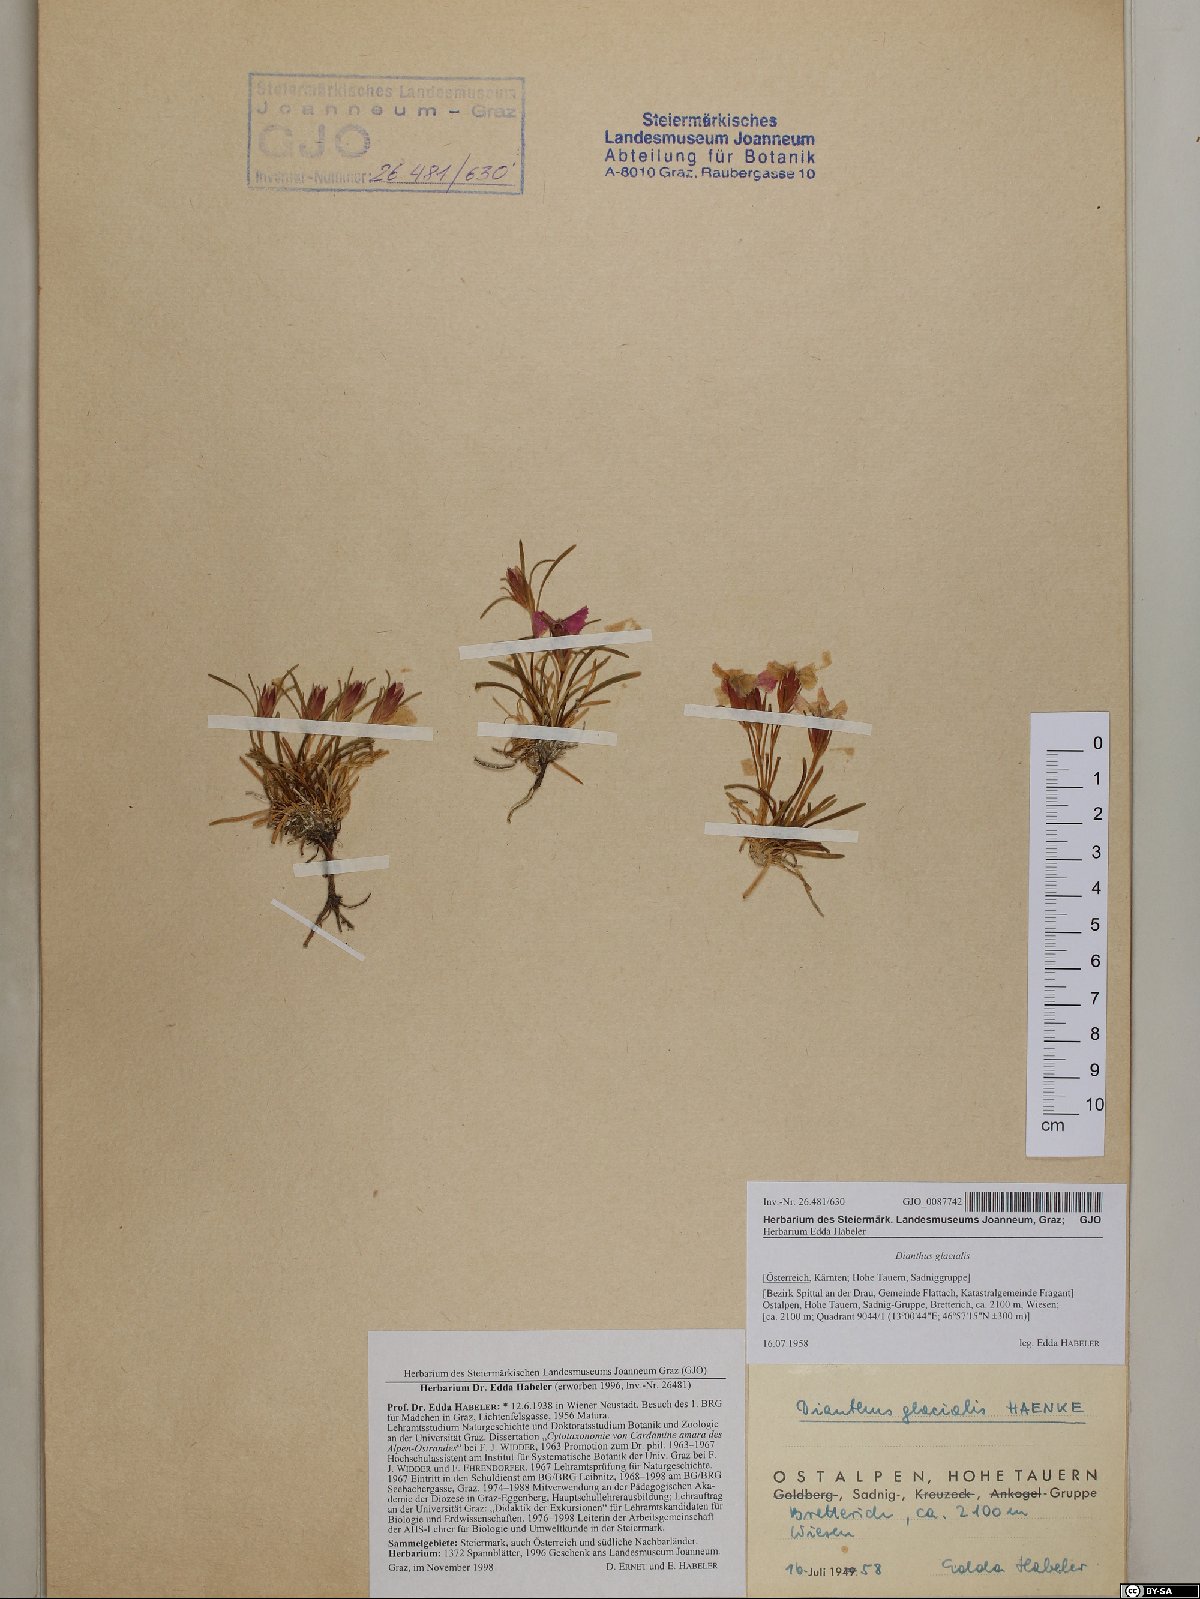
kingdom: Plantae
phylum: Tracheophyta
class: Magnoliopsida
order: Caryophyllales
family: Caryophyllaceae
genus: Dianthus
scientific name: Dianthus glacialis
